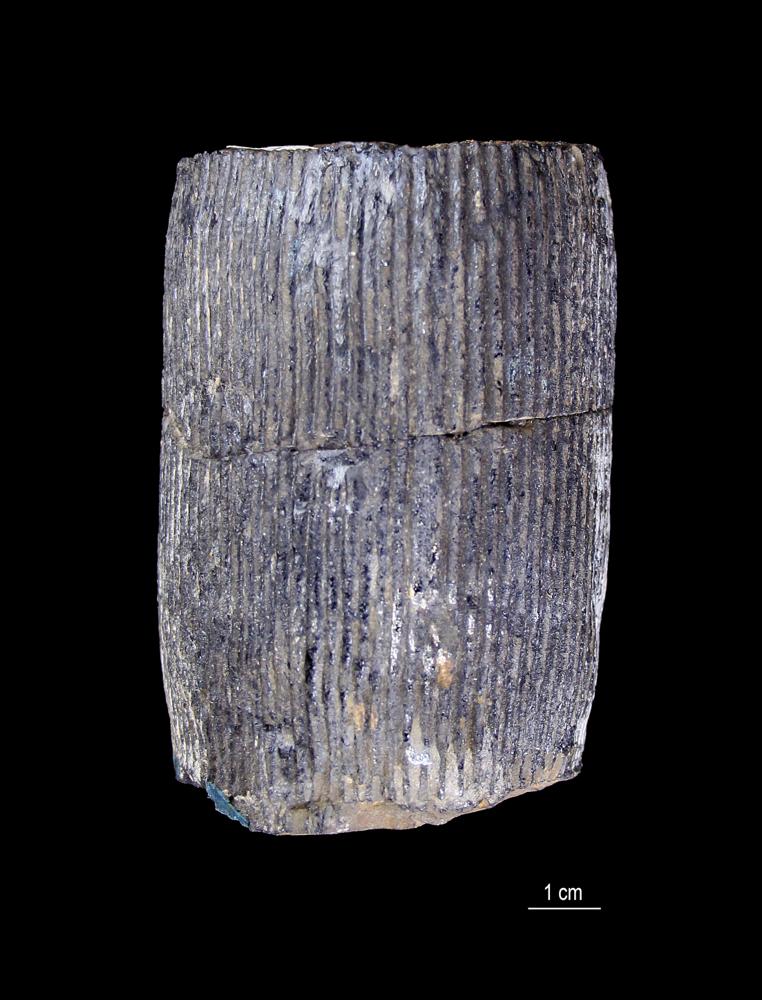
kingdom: Plantae
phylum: Tracheophyta
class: Polypodiopsida
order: Equisetales
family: Calamitaceae
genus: Calamites
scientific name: Calamites
